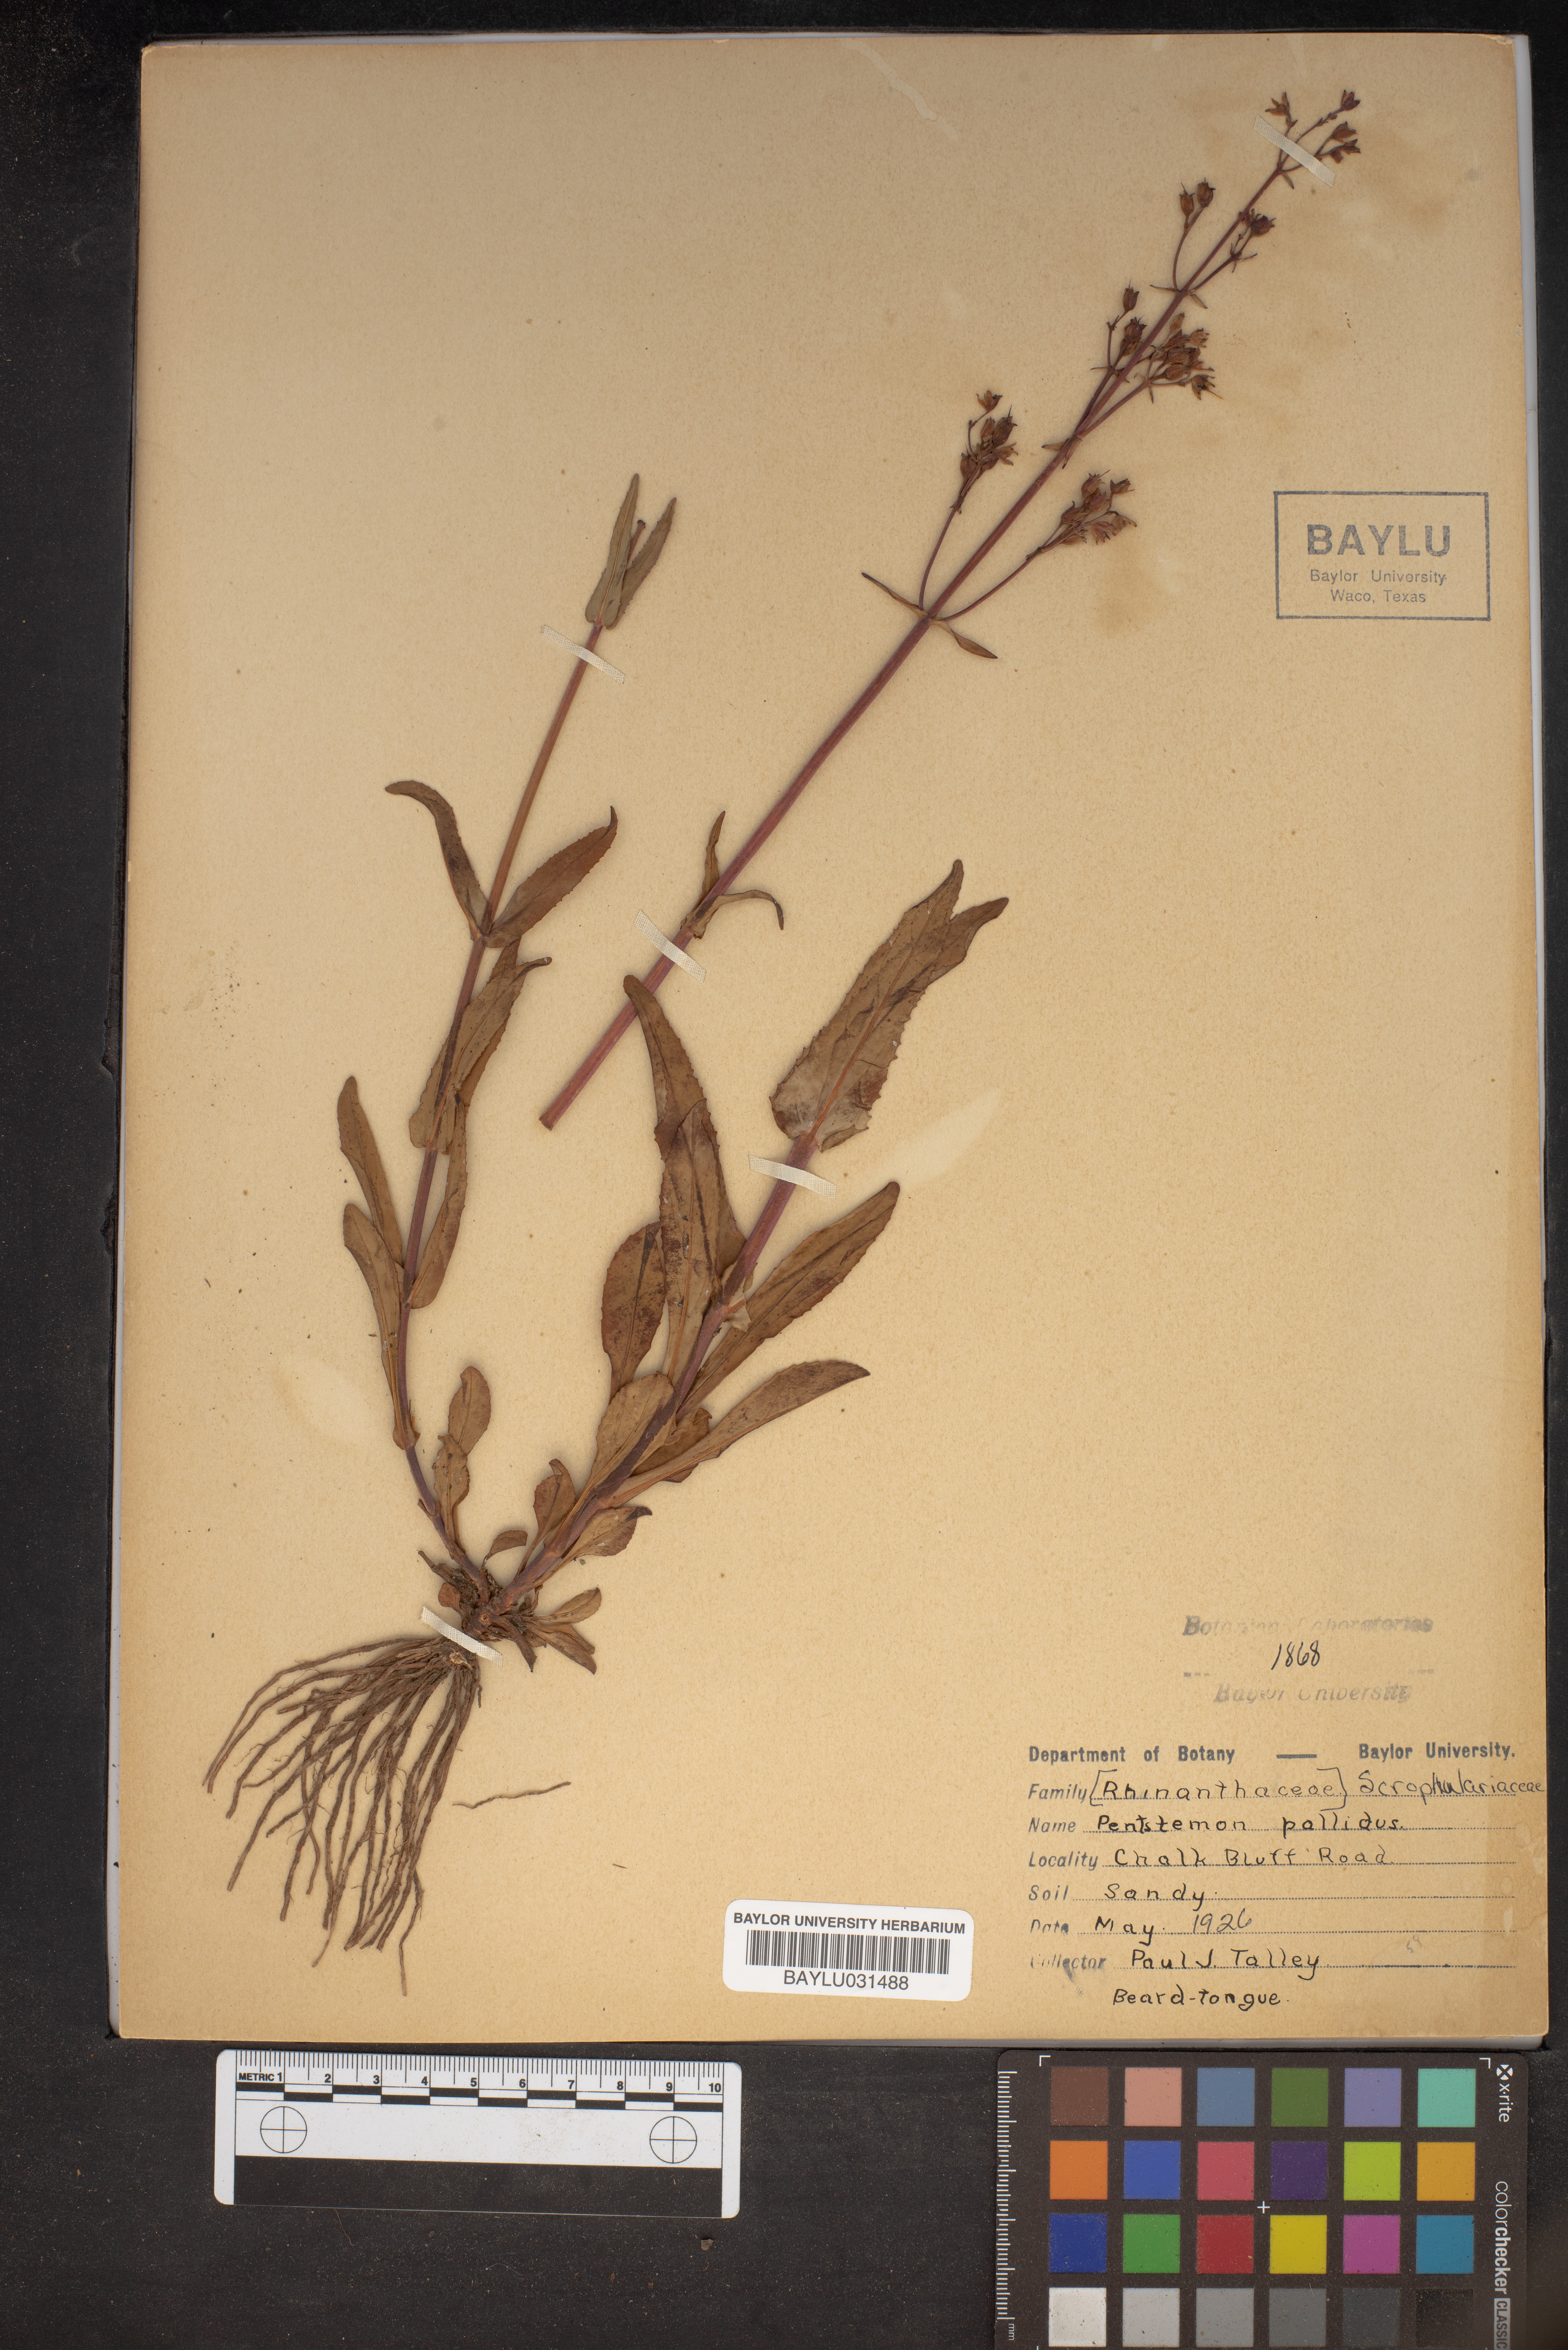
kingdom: Plantae
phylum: Tracheophyta
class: Magnoliopsida
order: Lamiales
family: Plantaginaceae
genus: Penstemon
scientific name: Penstemon pallidus
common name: Pale beardtongue
